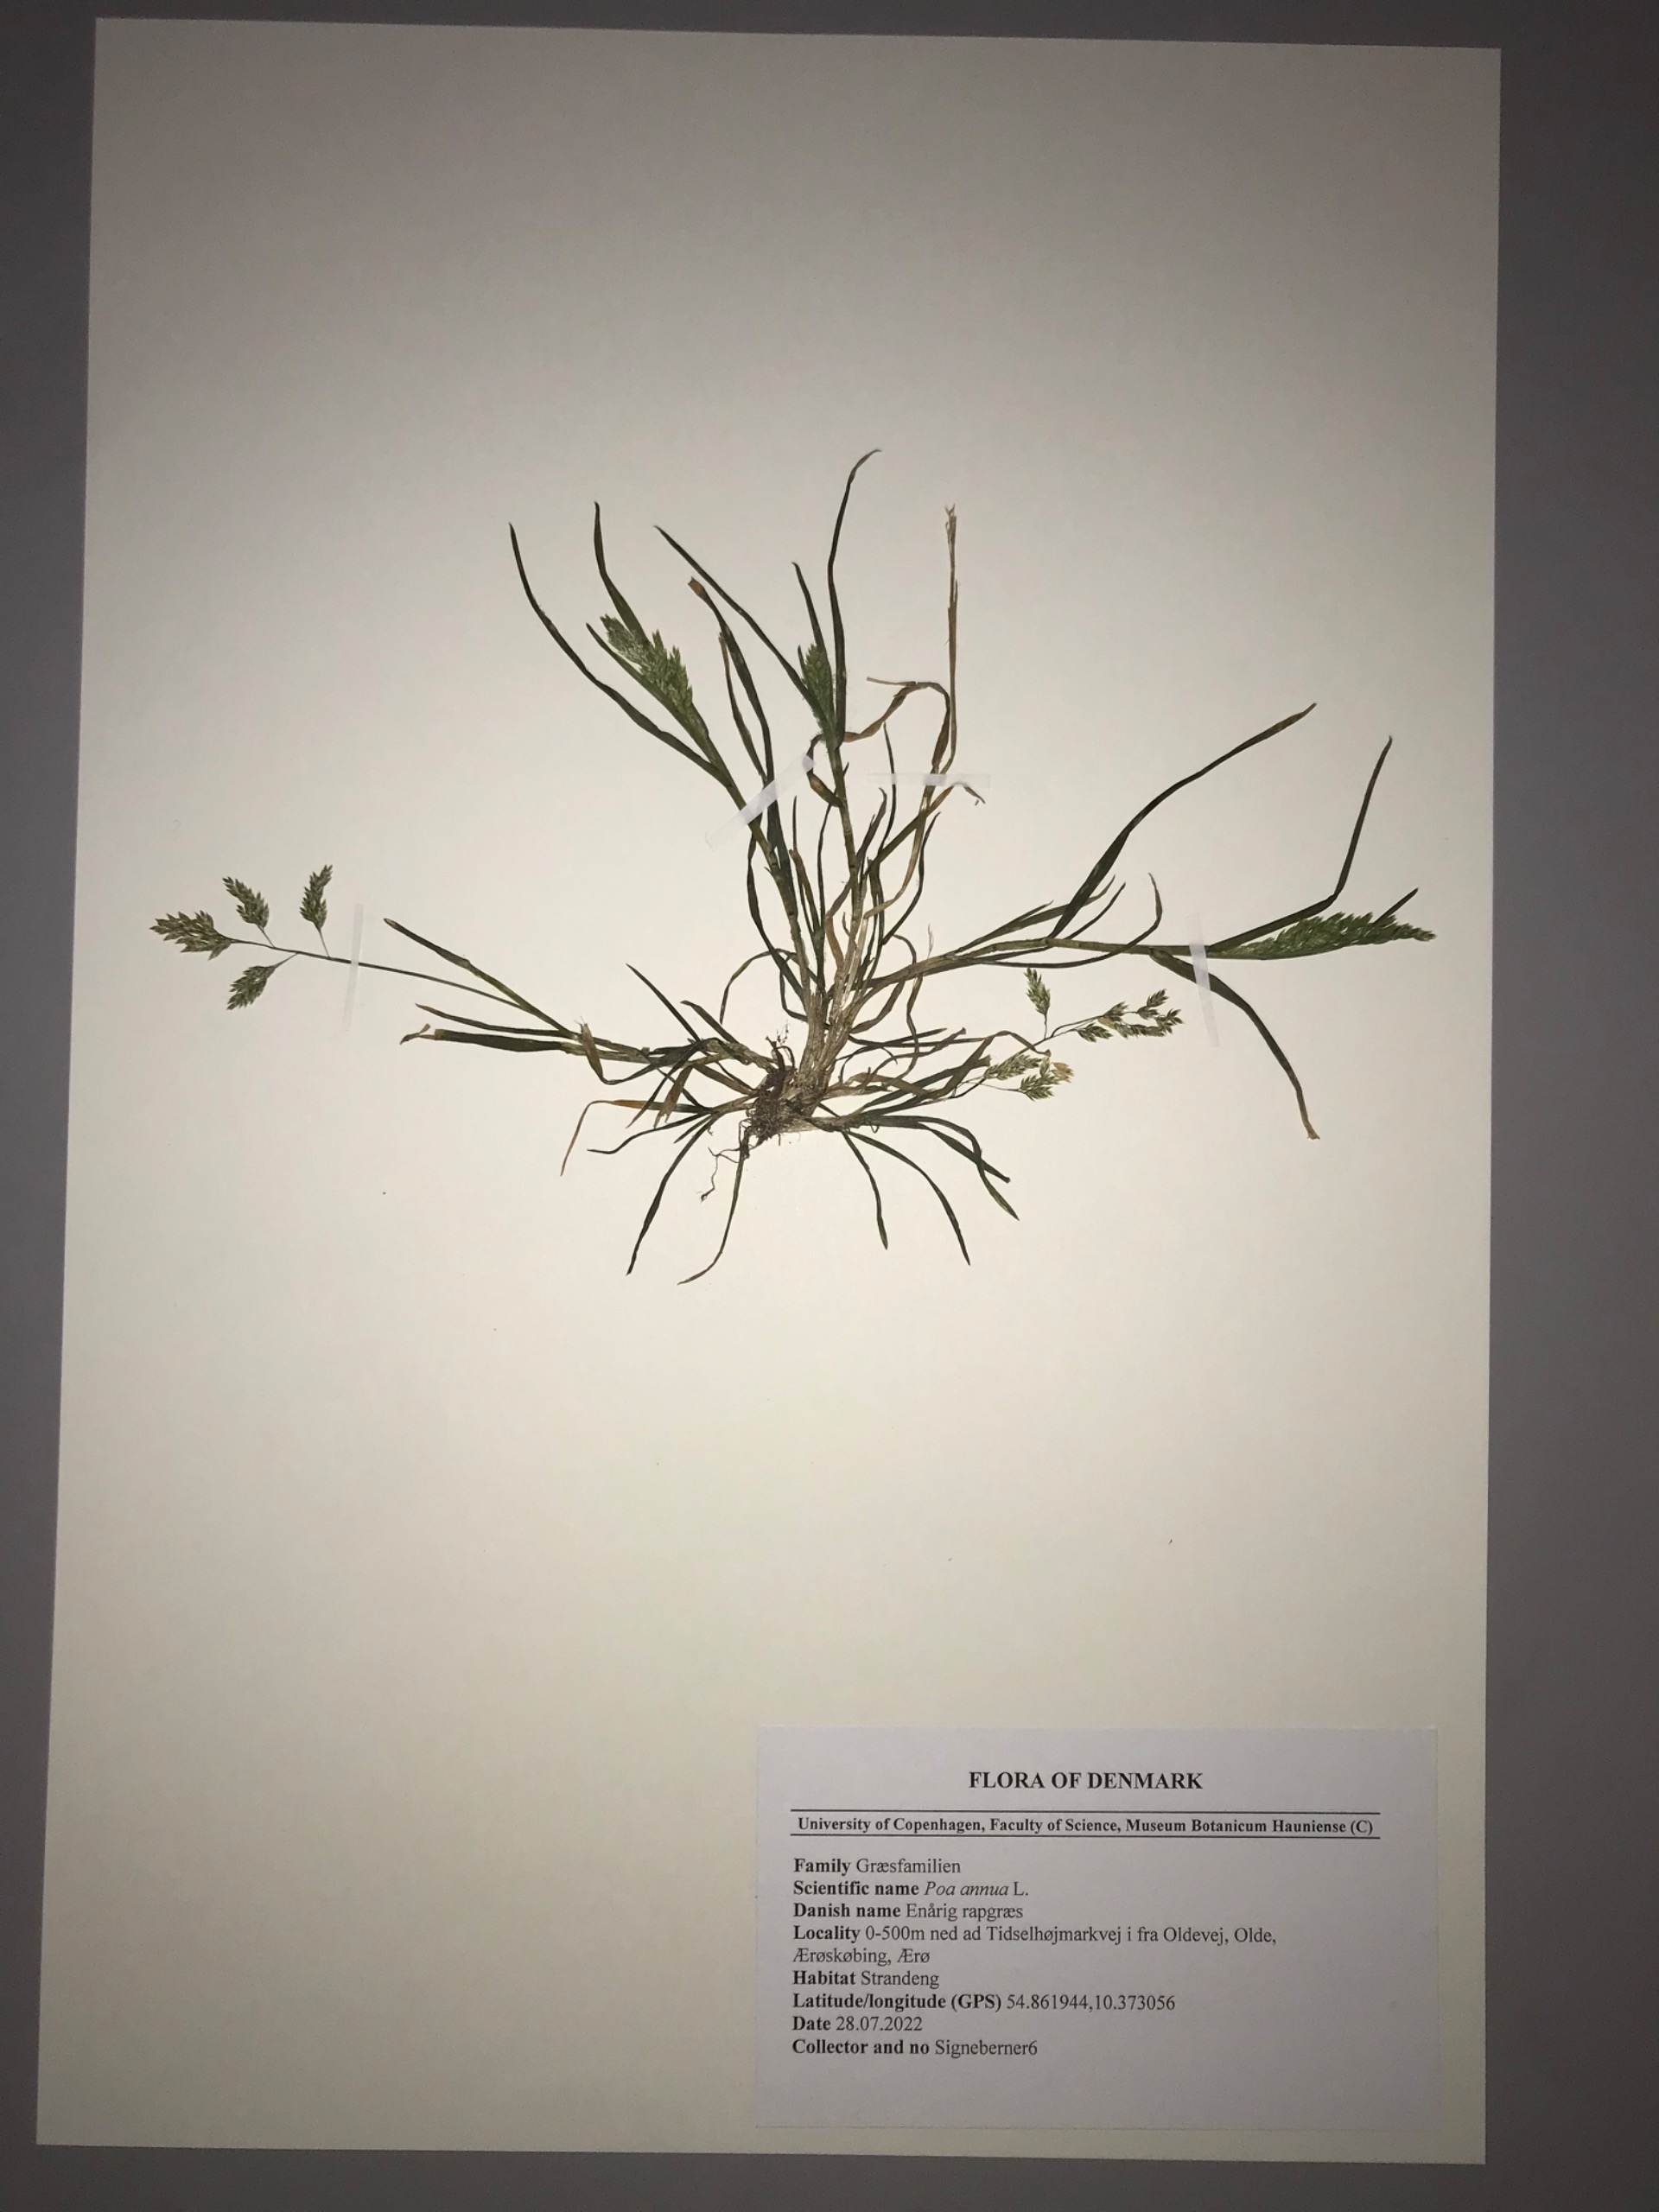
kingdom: Plantae
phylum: Tracheophyta
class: Liliopsida
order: Poales
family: Poaceae
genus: Poa
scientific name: Poa annua
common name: Enårig rapgræs
